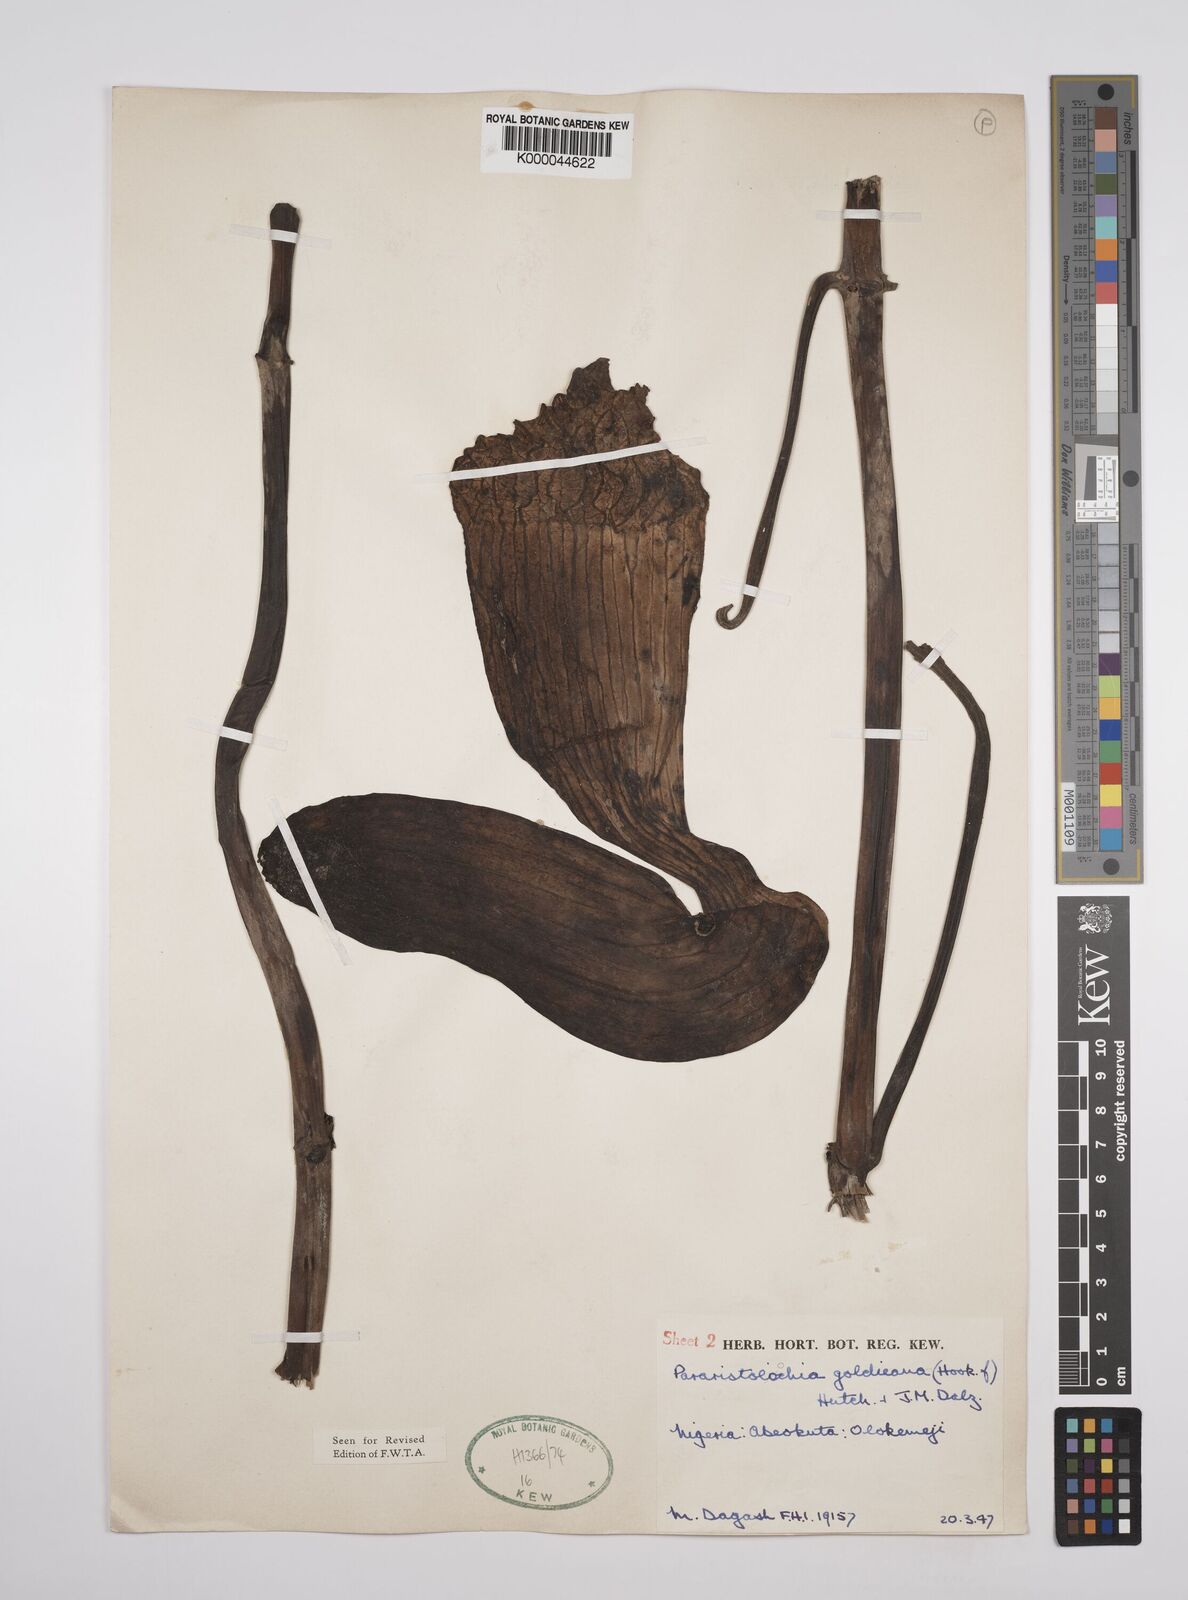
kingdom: Plantae
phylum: Tracheophyta
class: Magnoliopsida
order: Piperales
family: Aristolochiaceae
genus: Aristolochia
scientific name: Aristolochia goldieana
